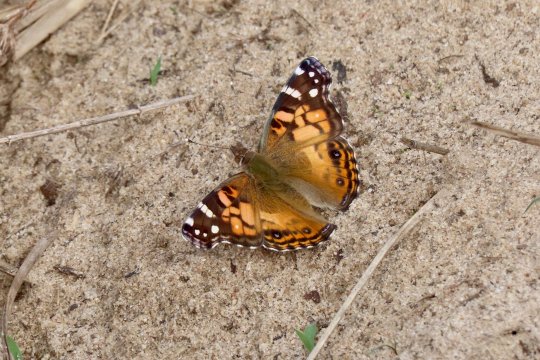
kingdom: Animalia
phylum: Arthropoda
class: Insecta
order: Lepidoptera
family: Nymphalidae
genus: Vanessa
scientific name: Vanessa virginiensis
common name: American Lady
